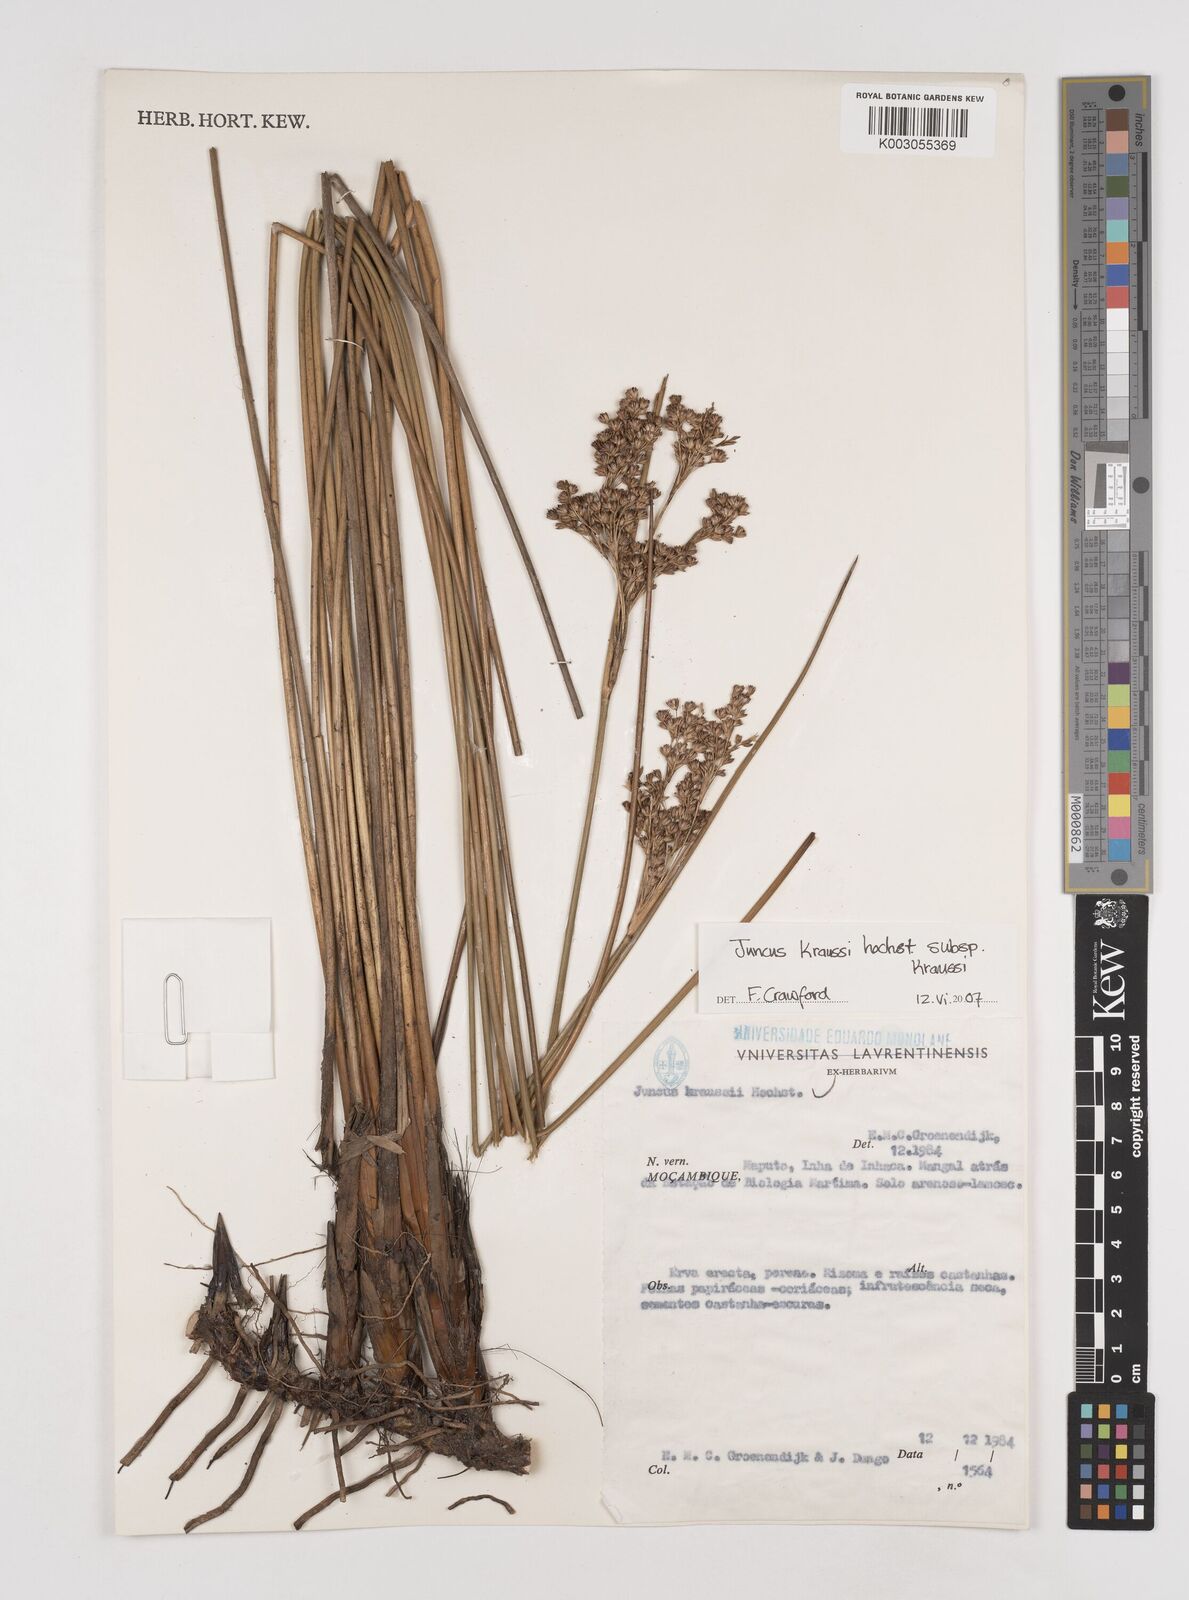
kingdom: Plantae
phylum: Tracheophyta
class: Liliopsida
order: Poales
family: Juncaceae
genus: Juncus
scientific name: Juncus kraussii
